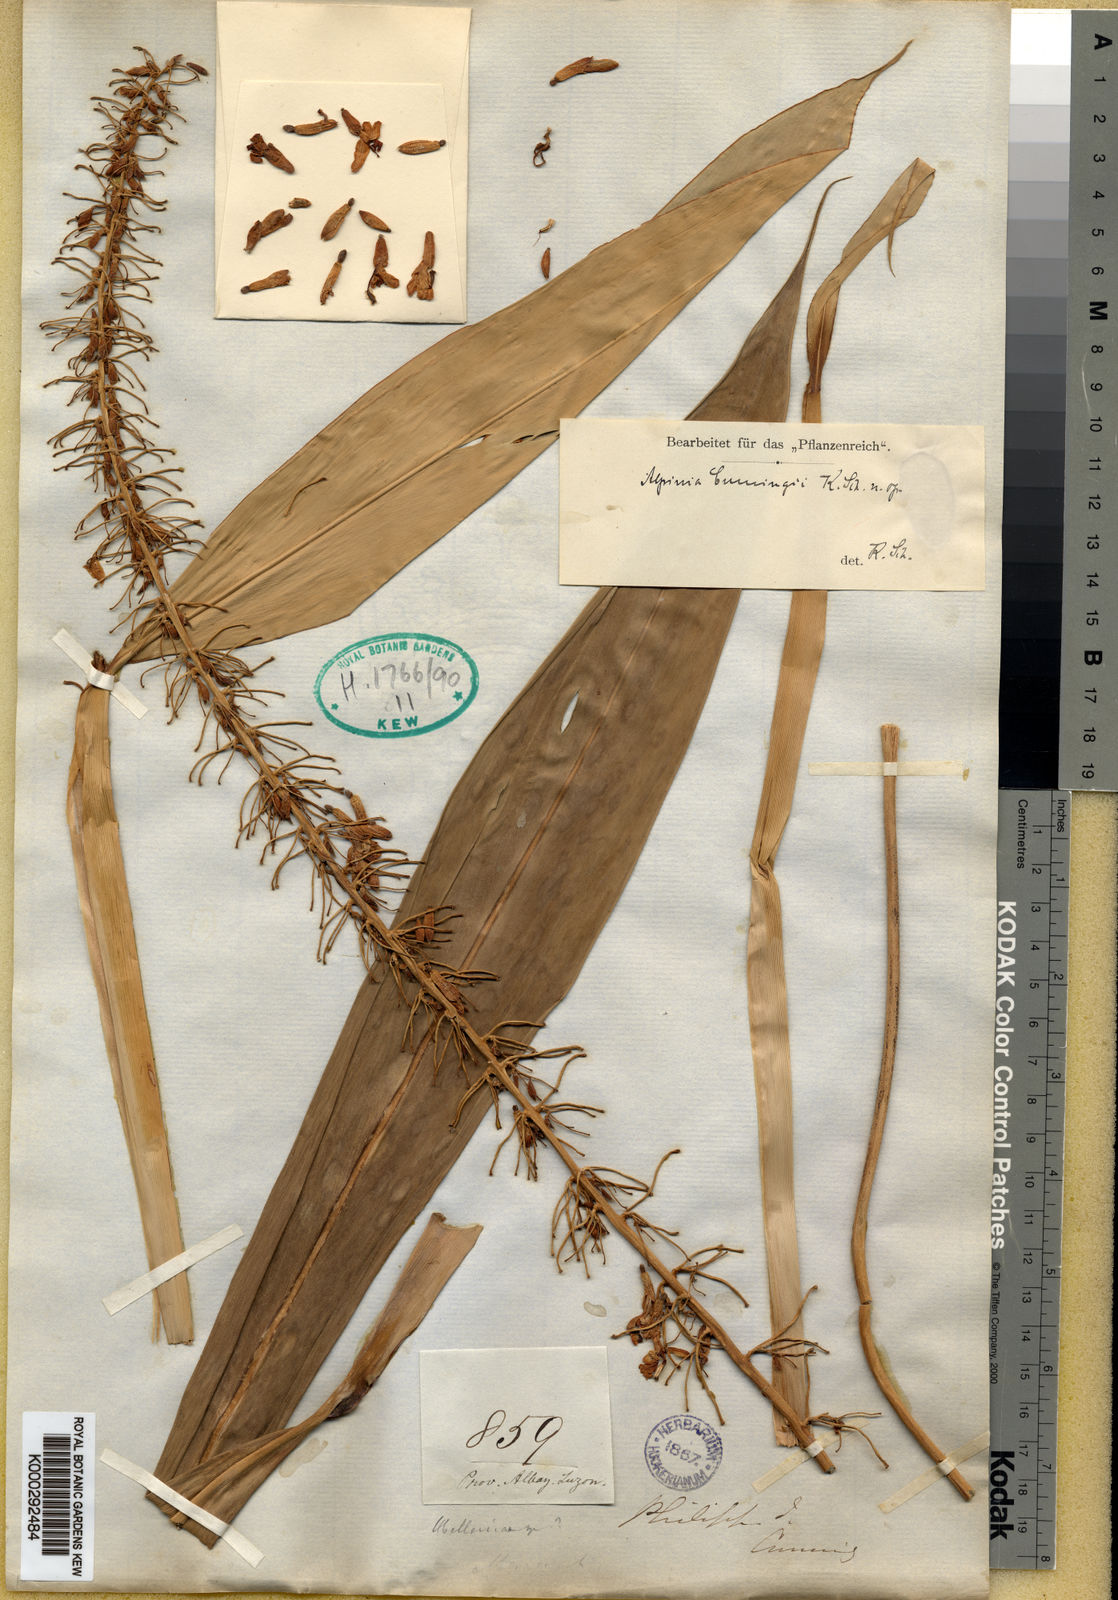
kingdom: Plantae
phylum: Tracheophyta
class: Liliopsida
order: Zingiberales
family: Zingiberaceae
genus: Alpinia
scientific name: Alpinia cumingii
